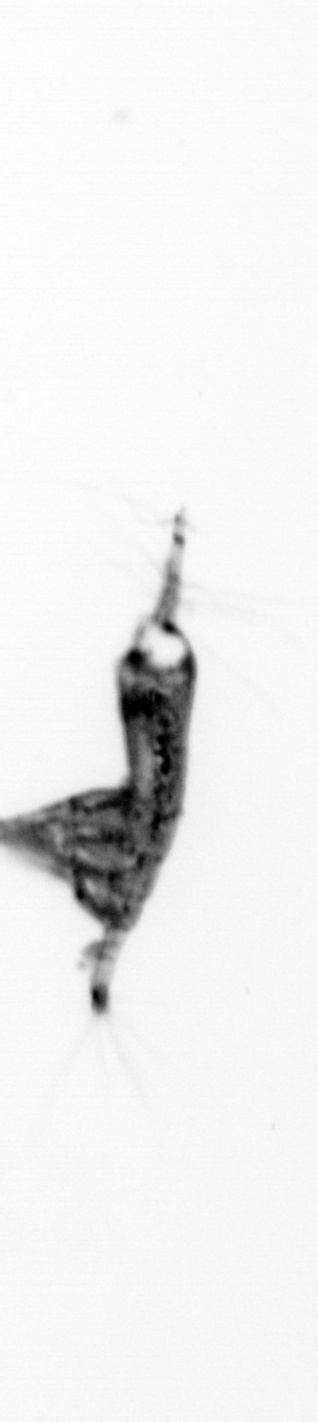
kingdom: Animalia
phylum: Arthropoda
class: Copepoda
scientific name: Copepoda
